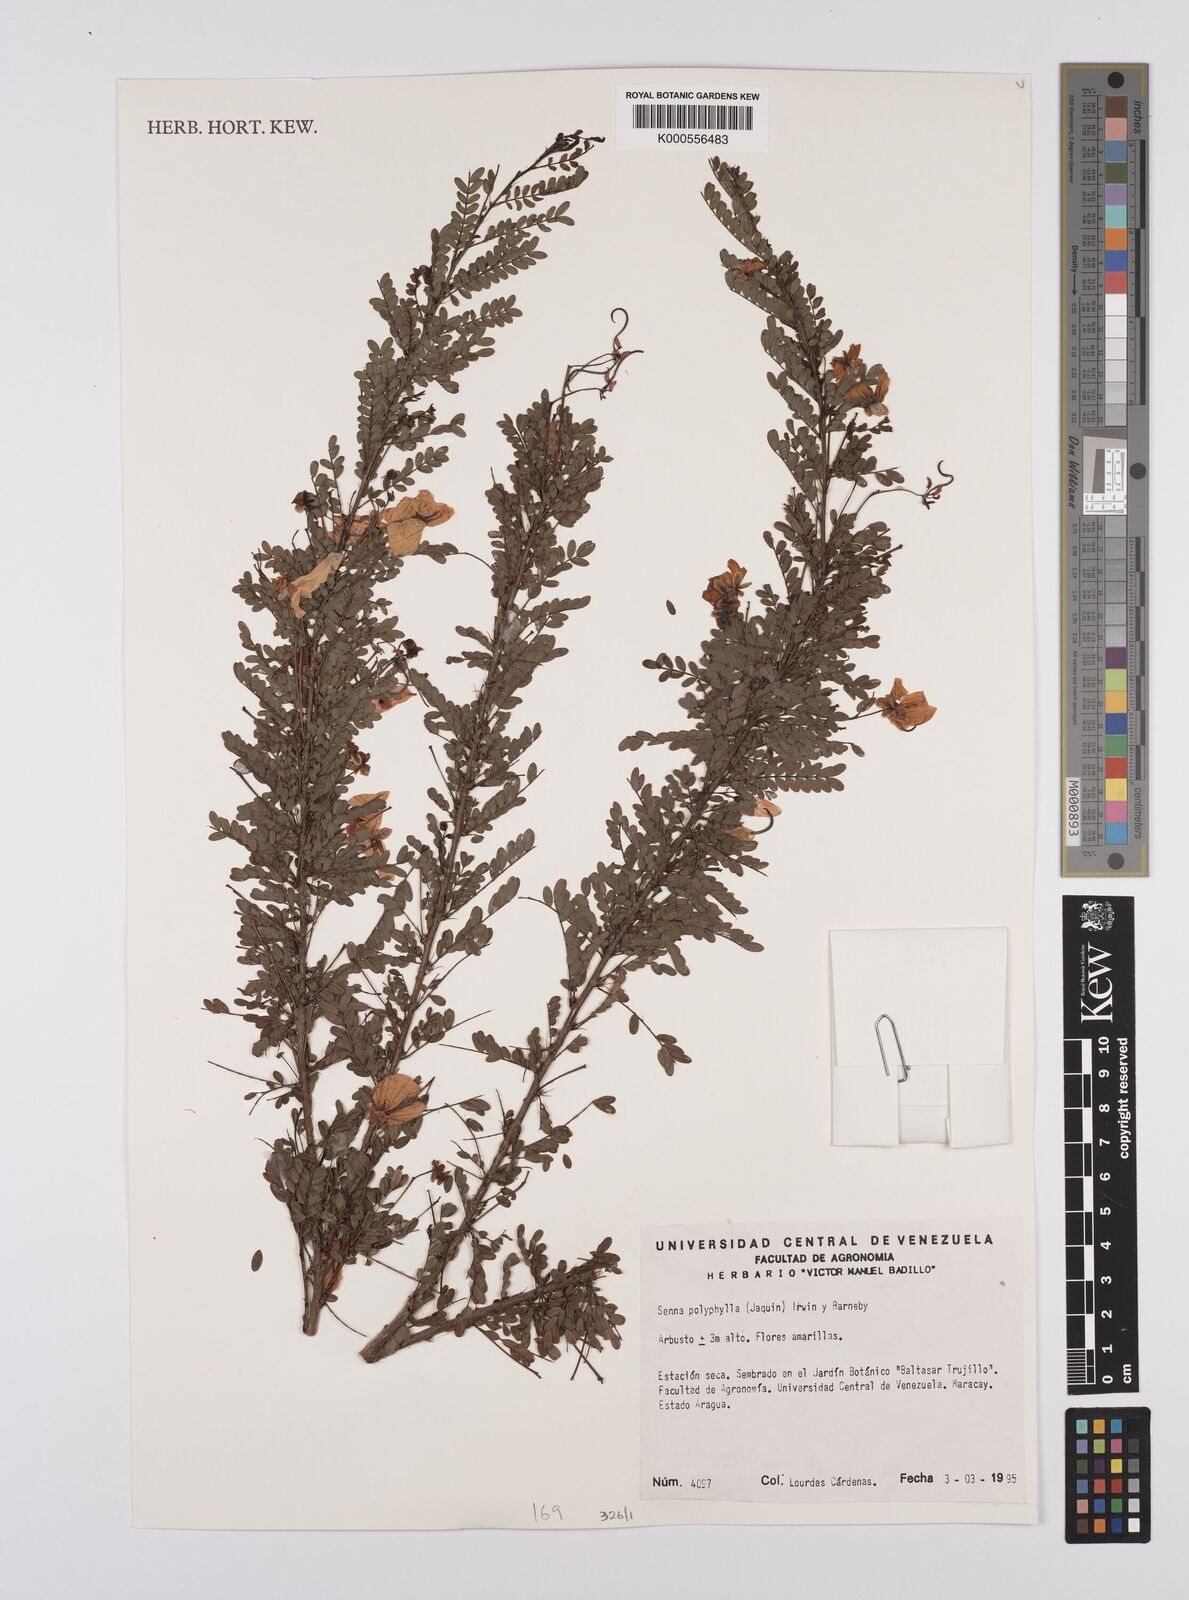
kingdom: Plantae
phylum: Tracheophyta
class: Magnoliopsida
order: Fabales
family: Fabaceae
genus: Senna
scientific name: Senna polyphylla
